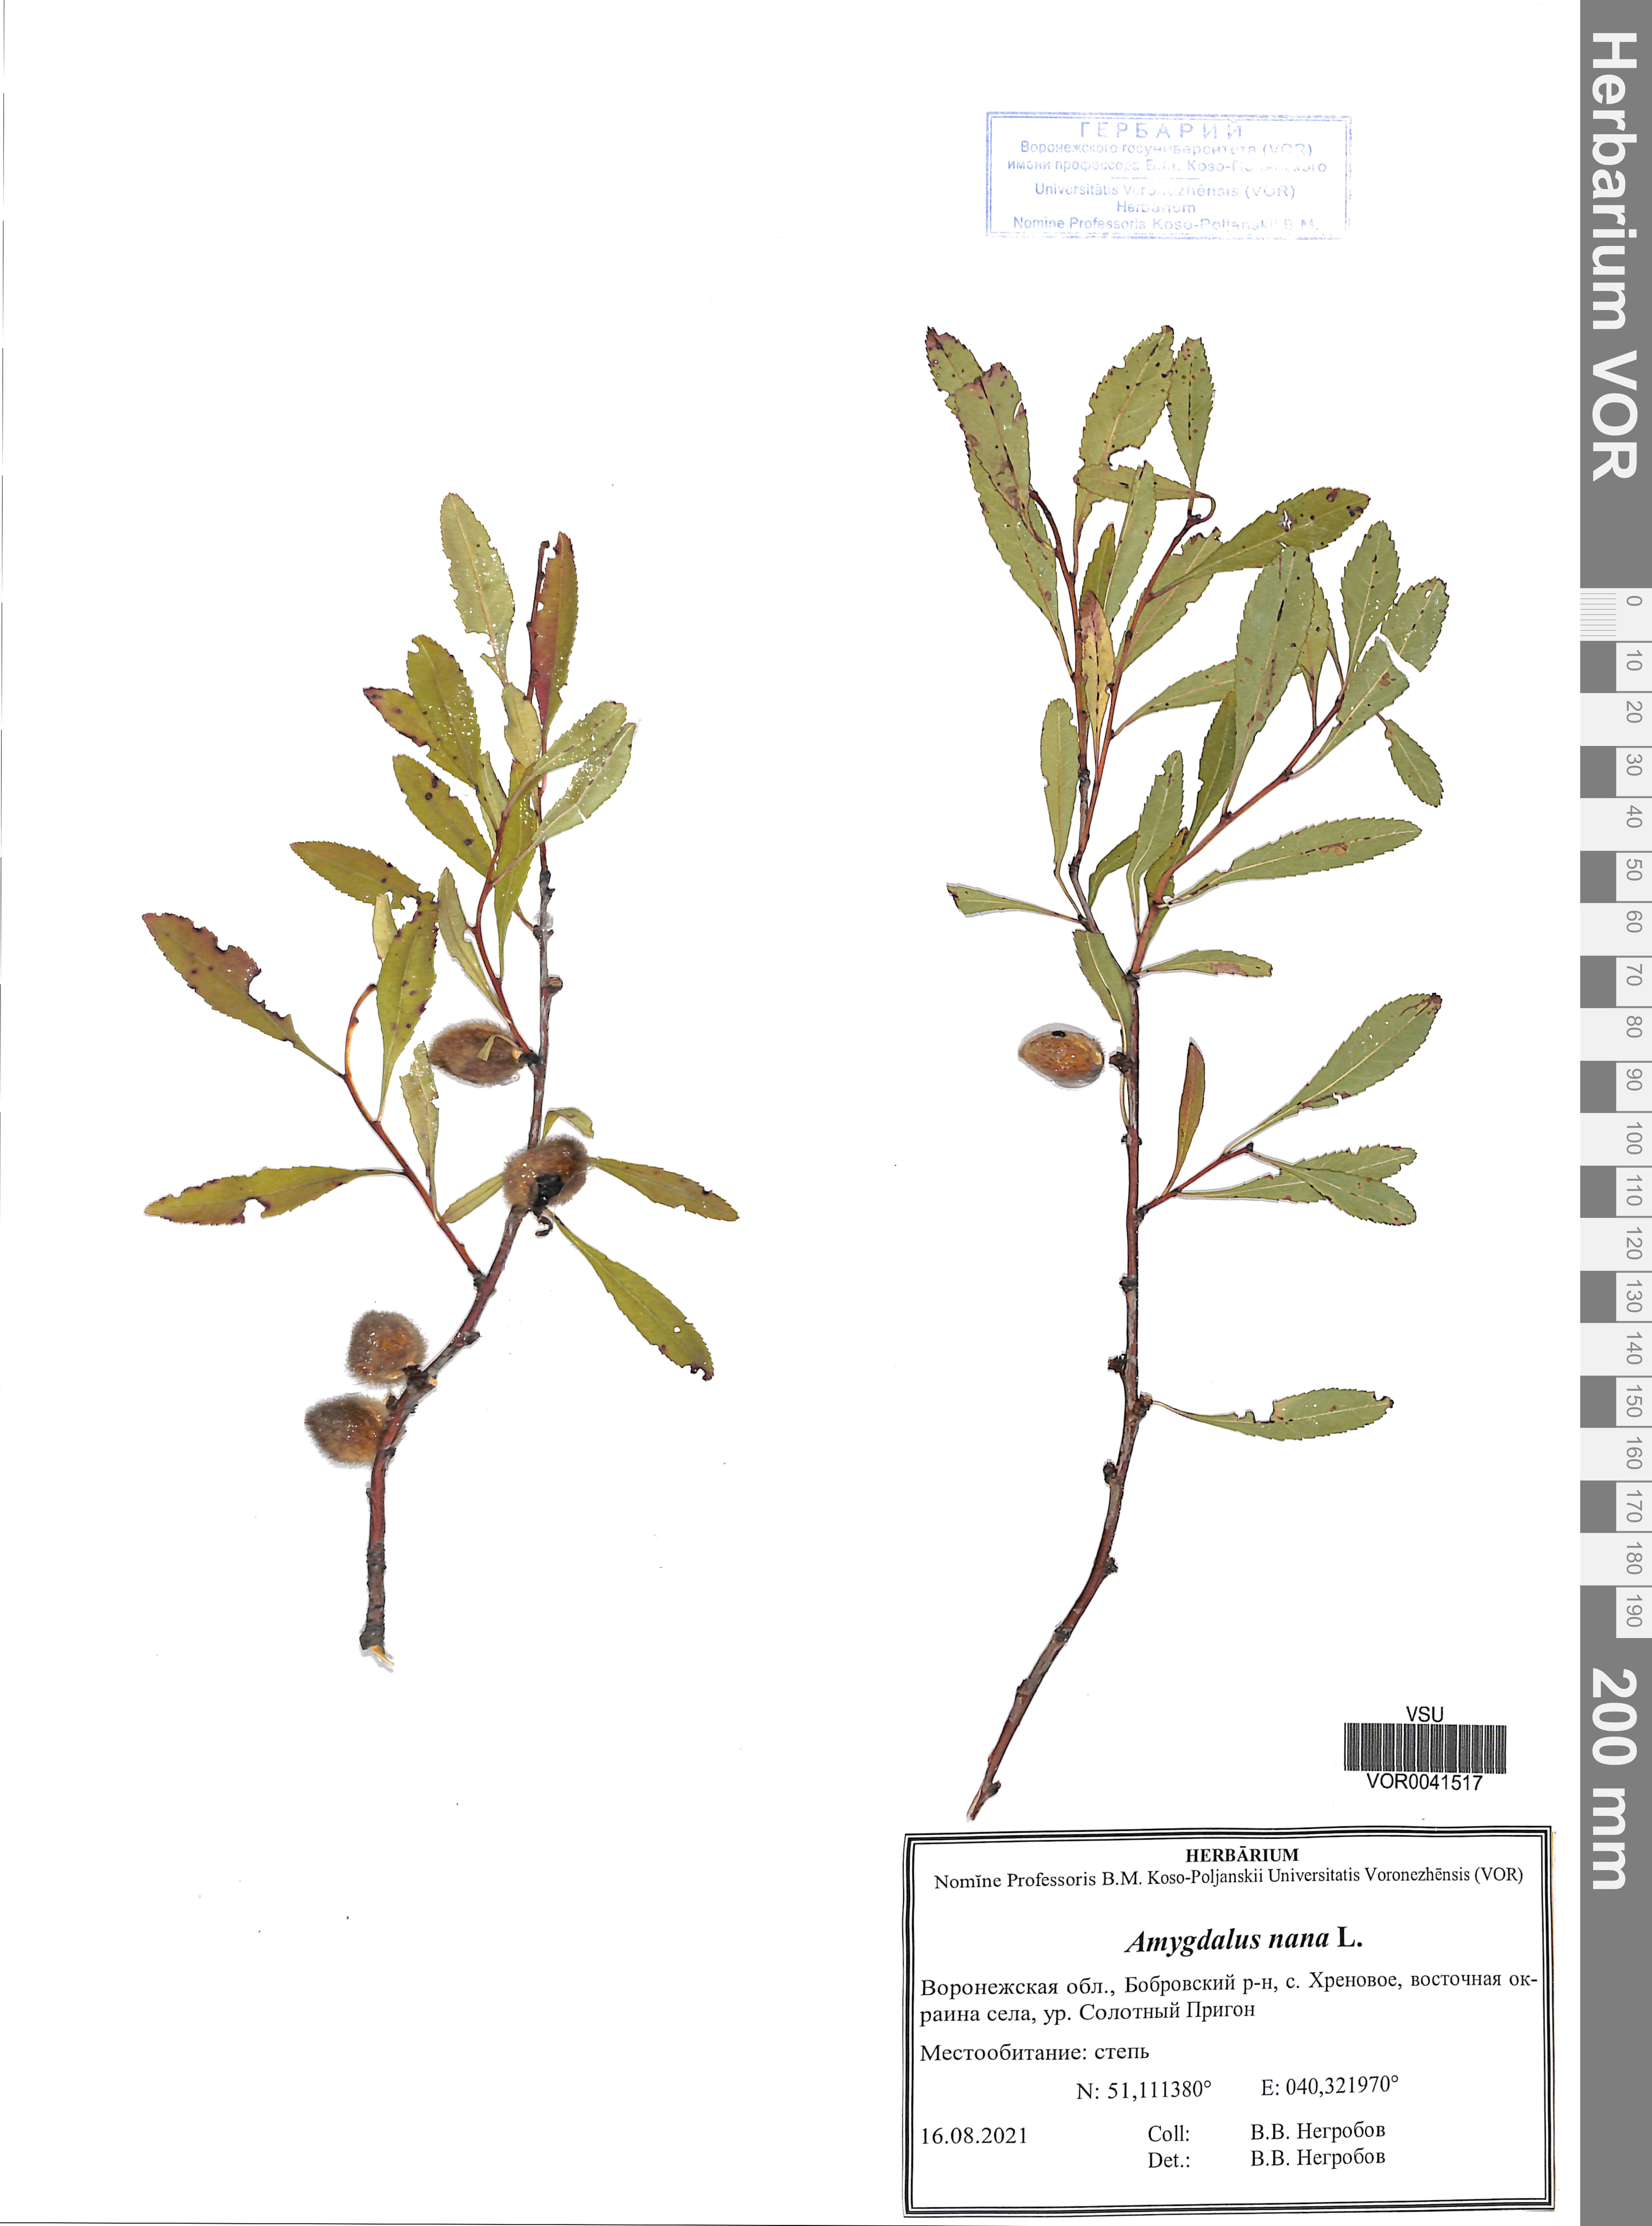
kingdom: Plantae
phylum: Tracheophyta
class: Magnoliopsida
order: Rosales
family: Rosaceae
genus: Prunus
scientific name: Prunus tenella
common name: Dwarf russian almond
